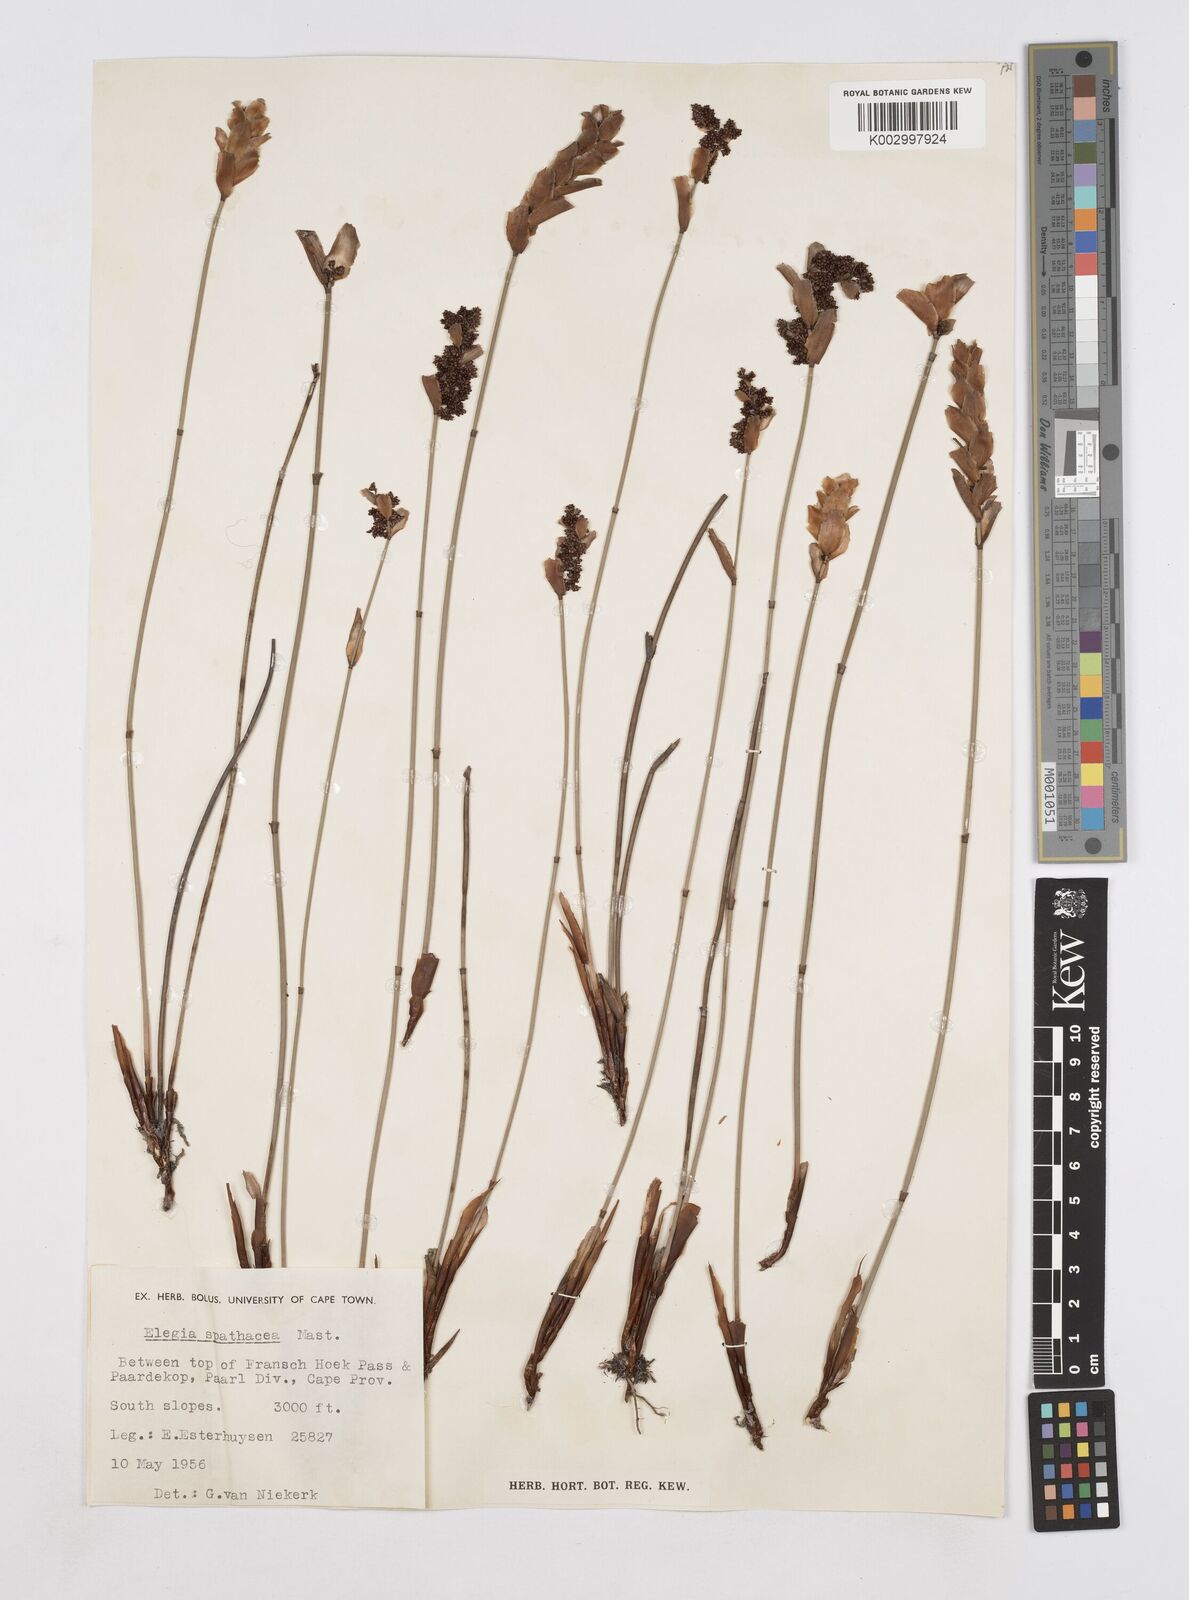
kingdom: Plantae
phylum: Tracheophyta
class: Liliopsida
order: Poales
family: Restionaceae
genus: Elegia
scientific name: Elegia spathacea
